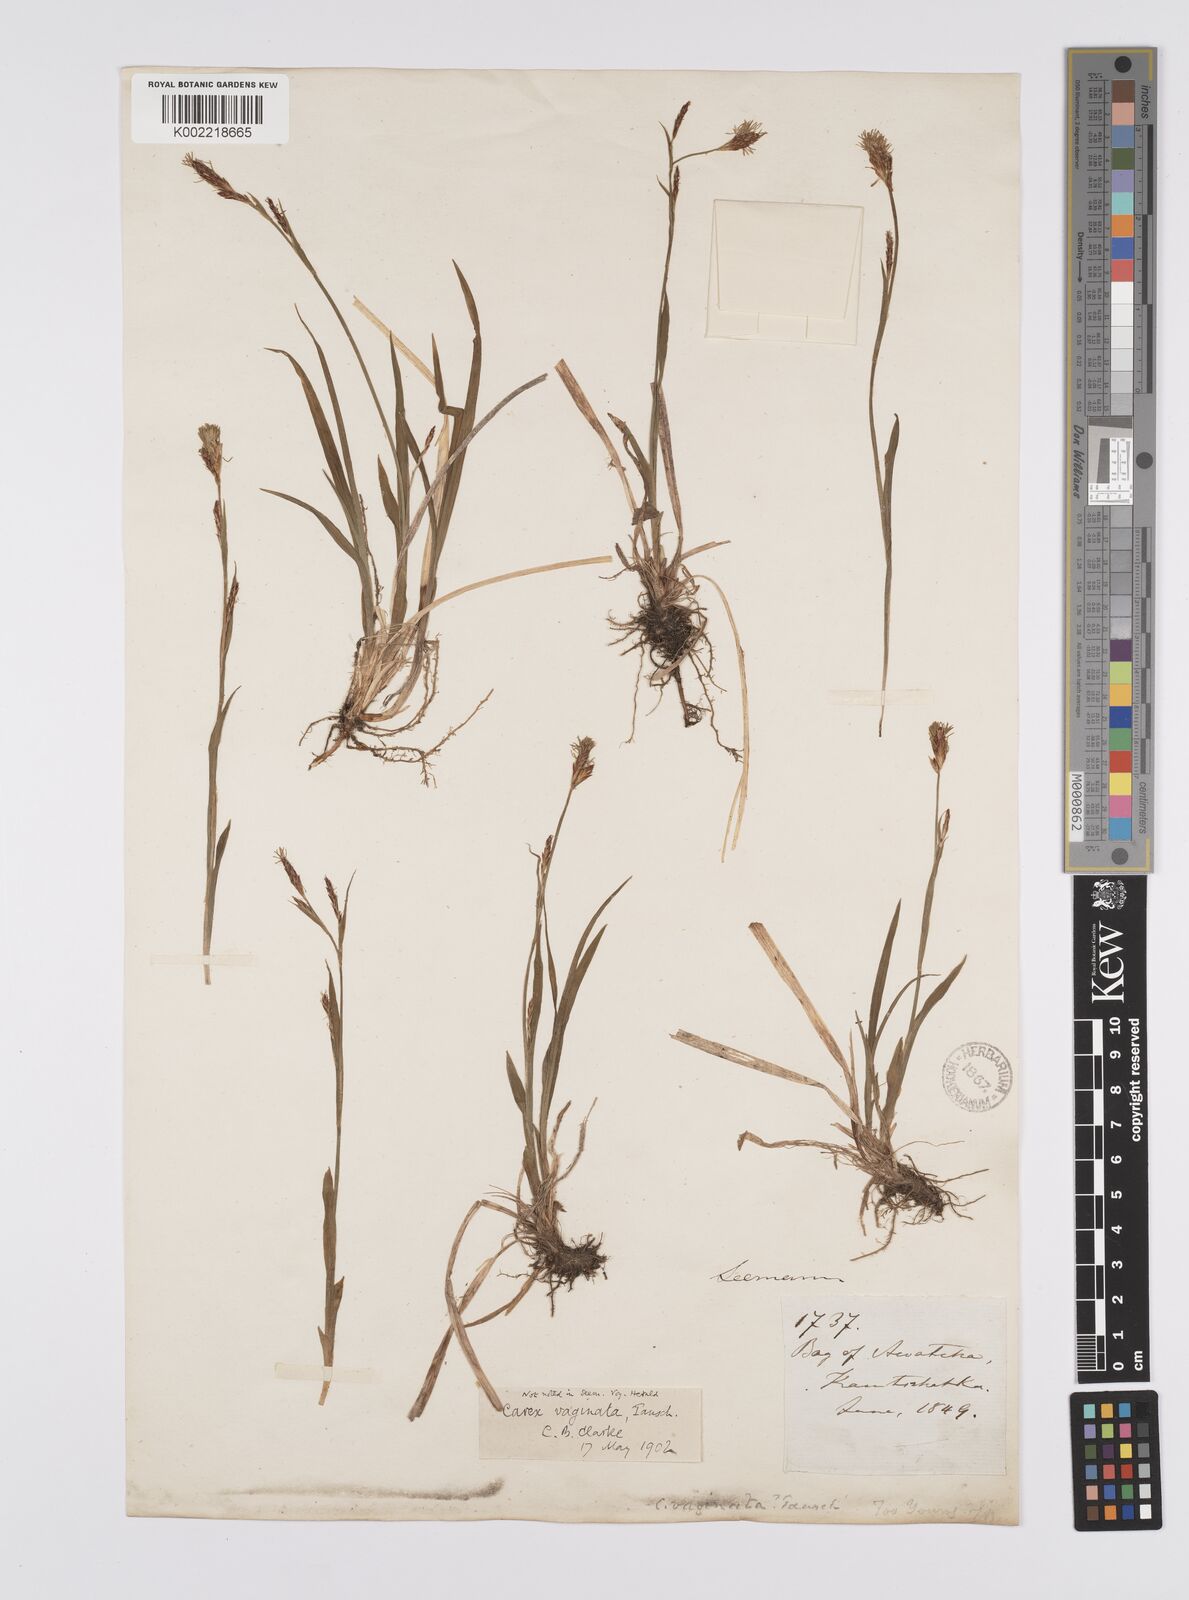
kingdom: Plantae
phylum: Tracheophyta
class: Liliopsida
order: Poales
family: Cyperaceae
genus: Carex
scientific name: Carex vaginata
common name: Sheathed sedge
